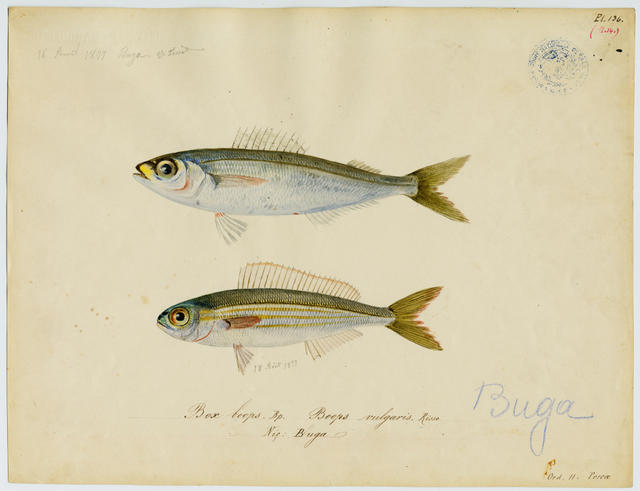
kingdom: Animalia
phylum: Chordata
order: Perciformes
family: Sparidae
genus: Boops
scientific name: Boops boops
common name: Bogue
